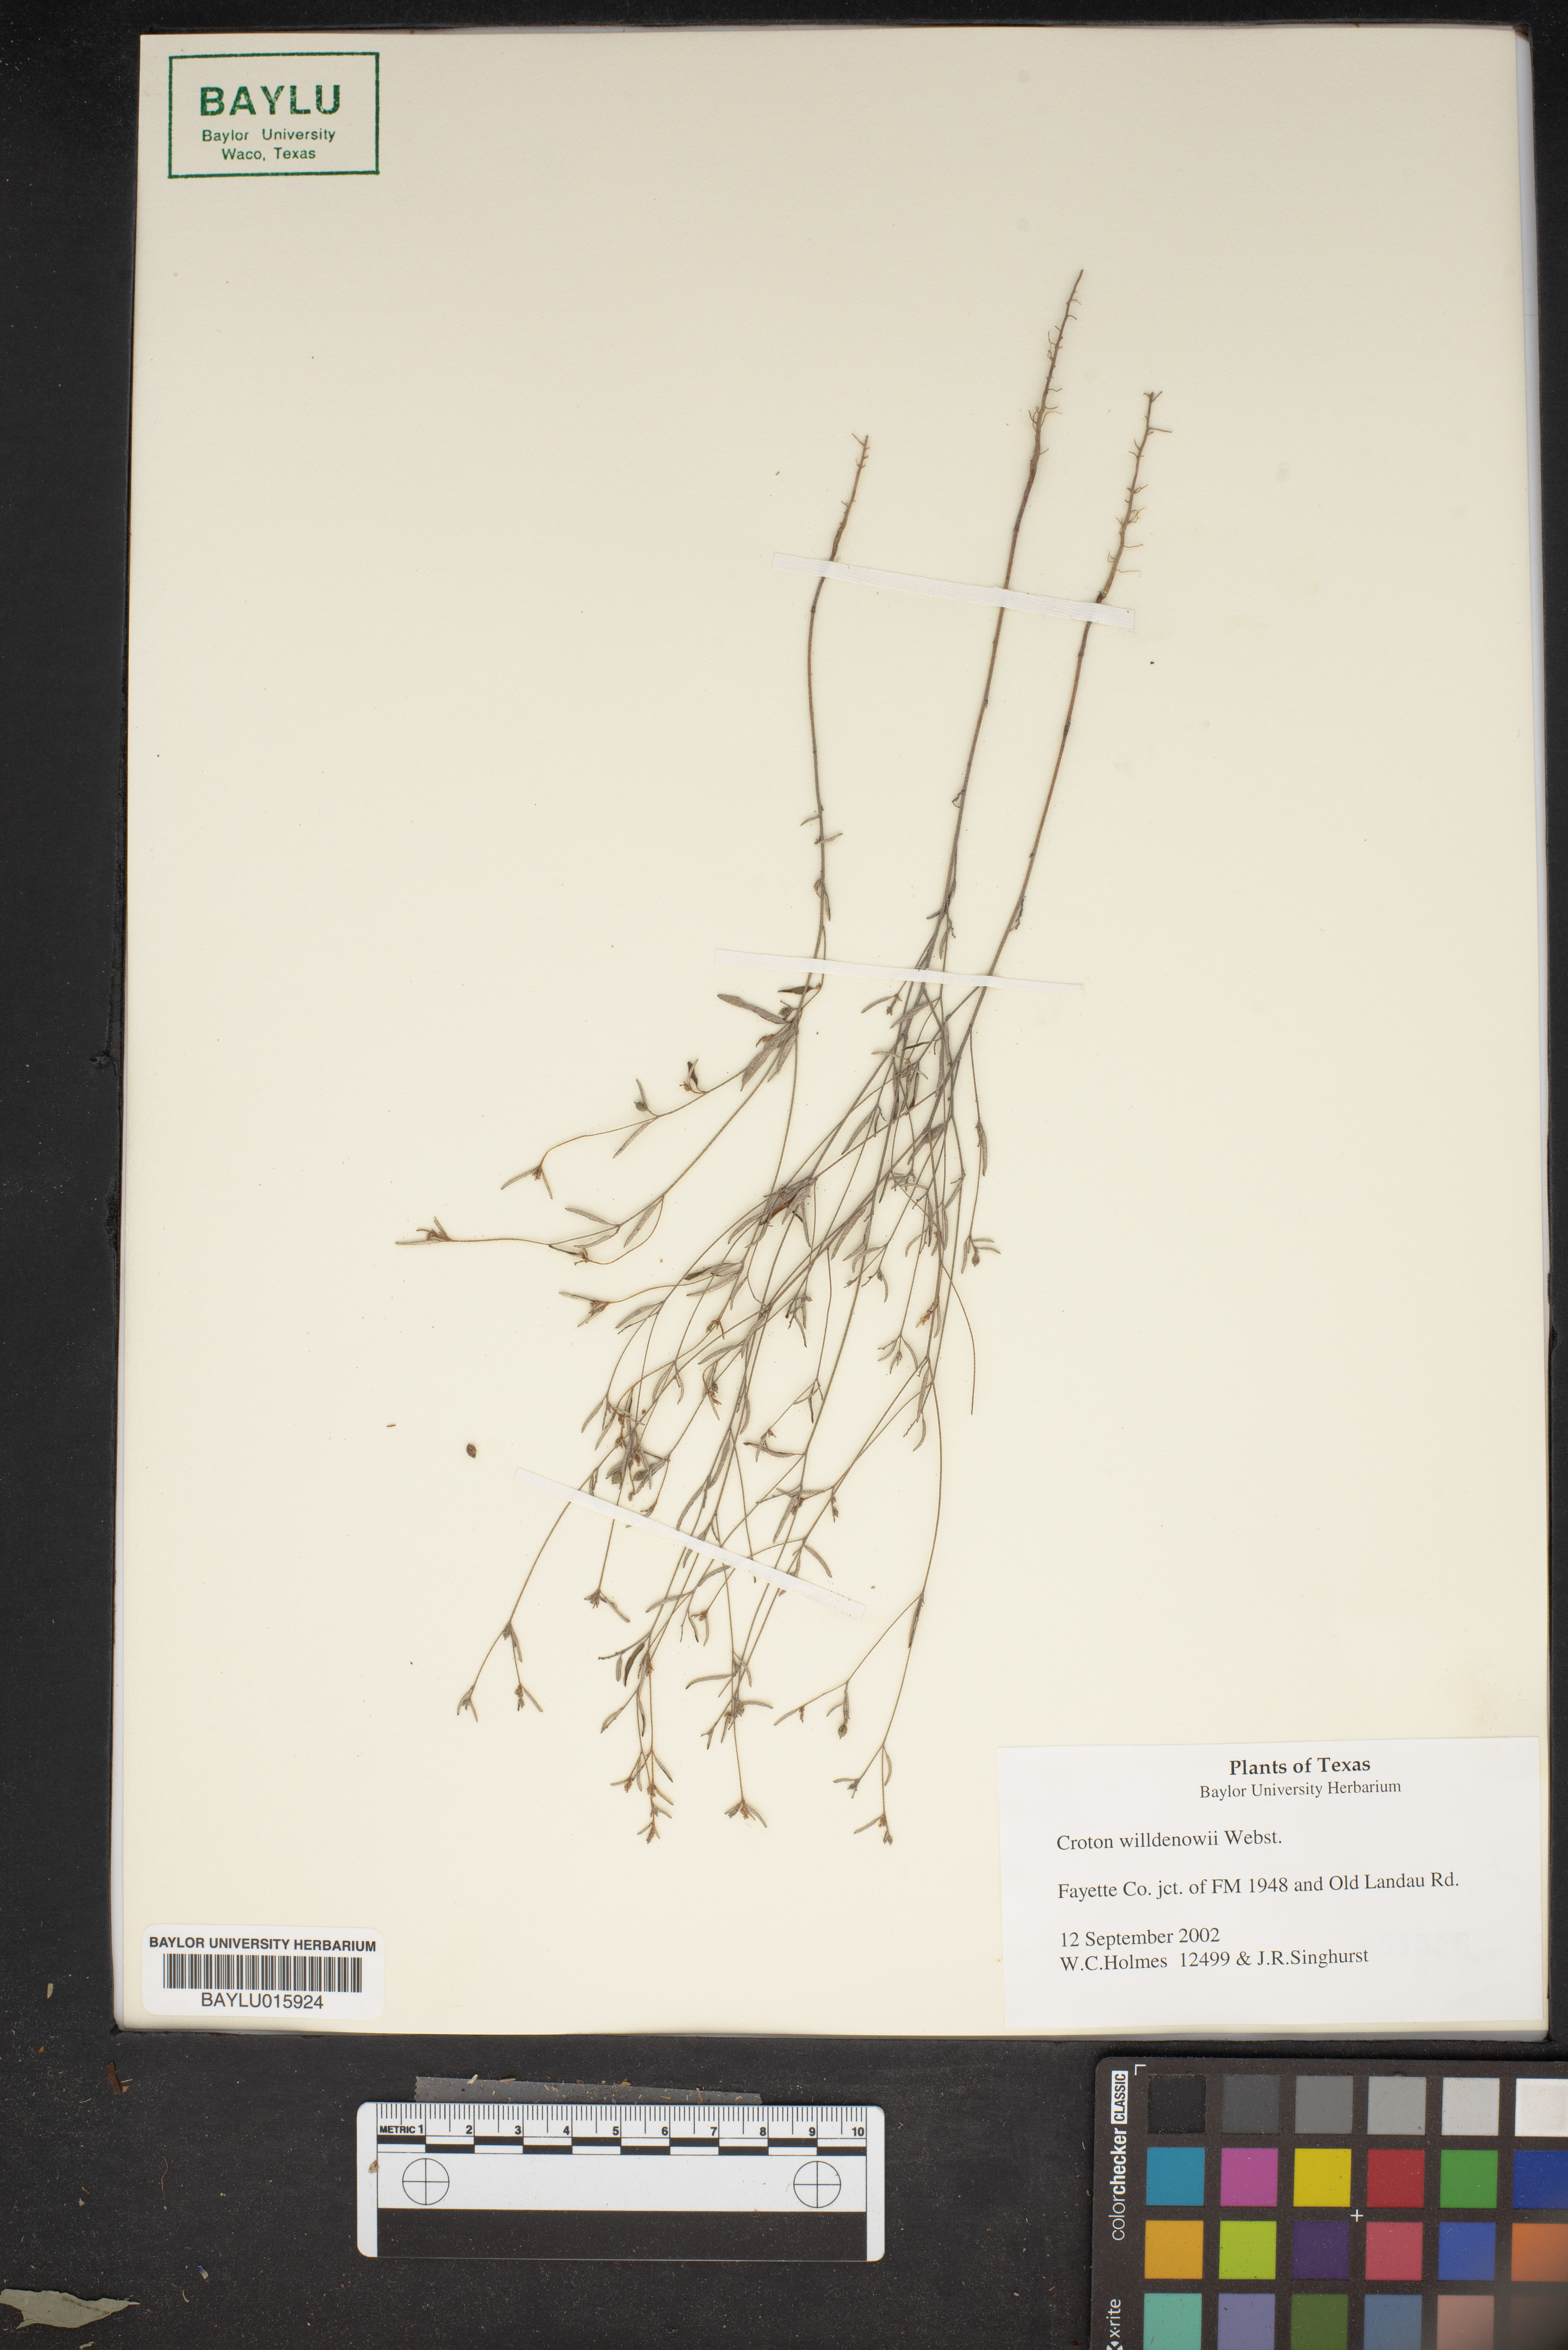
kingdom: Plantae
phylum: Tracheophyta
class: Magnoliopsida
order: Malpighiales
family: Euphorbiaceae
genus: Croton
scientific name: Croton michauxii
